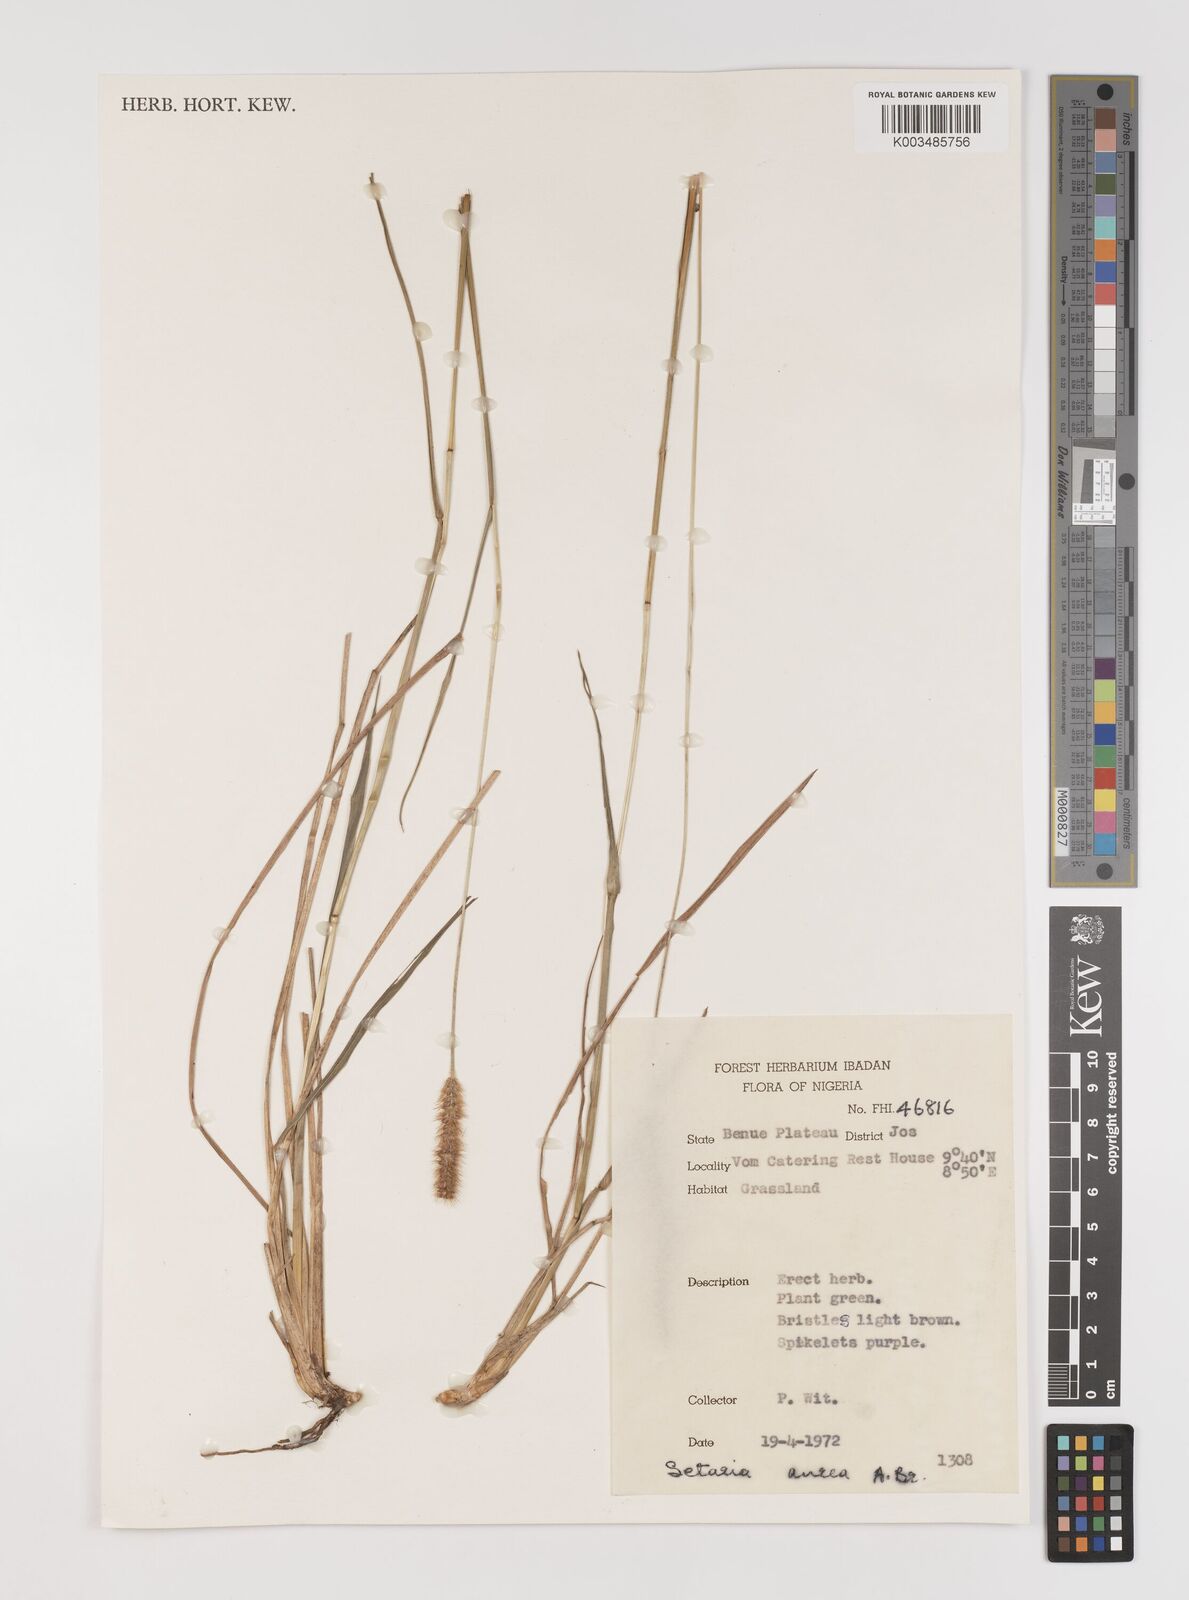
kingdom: Plantae
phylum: Tracheophyta
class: Liliopsida
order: Poales
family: Poaceae
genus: Setaria
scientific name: Setaria sphacelata
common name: African bristlegrass
